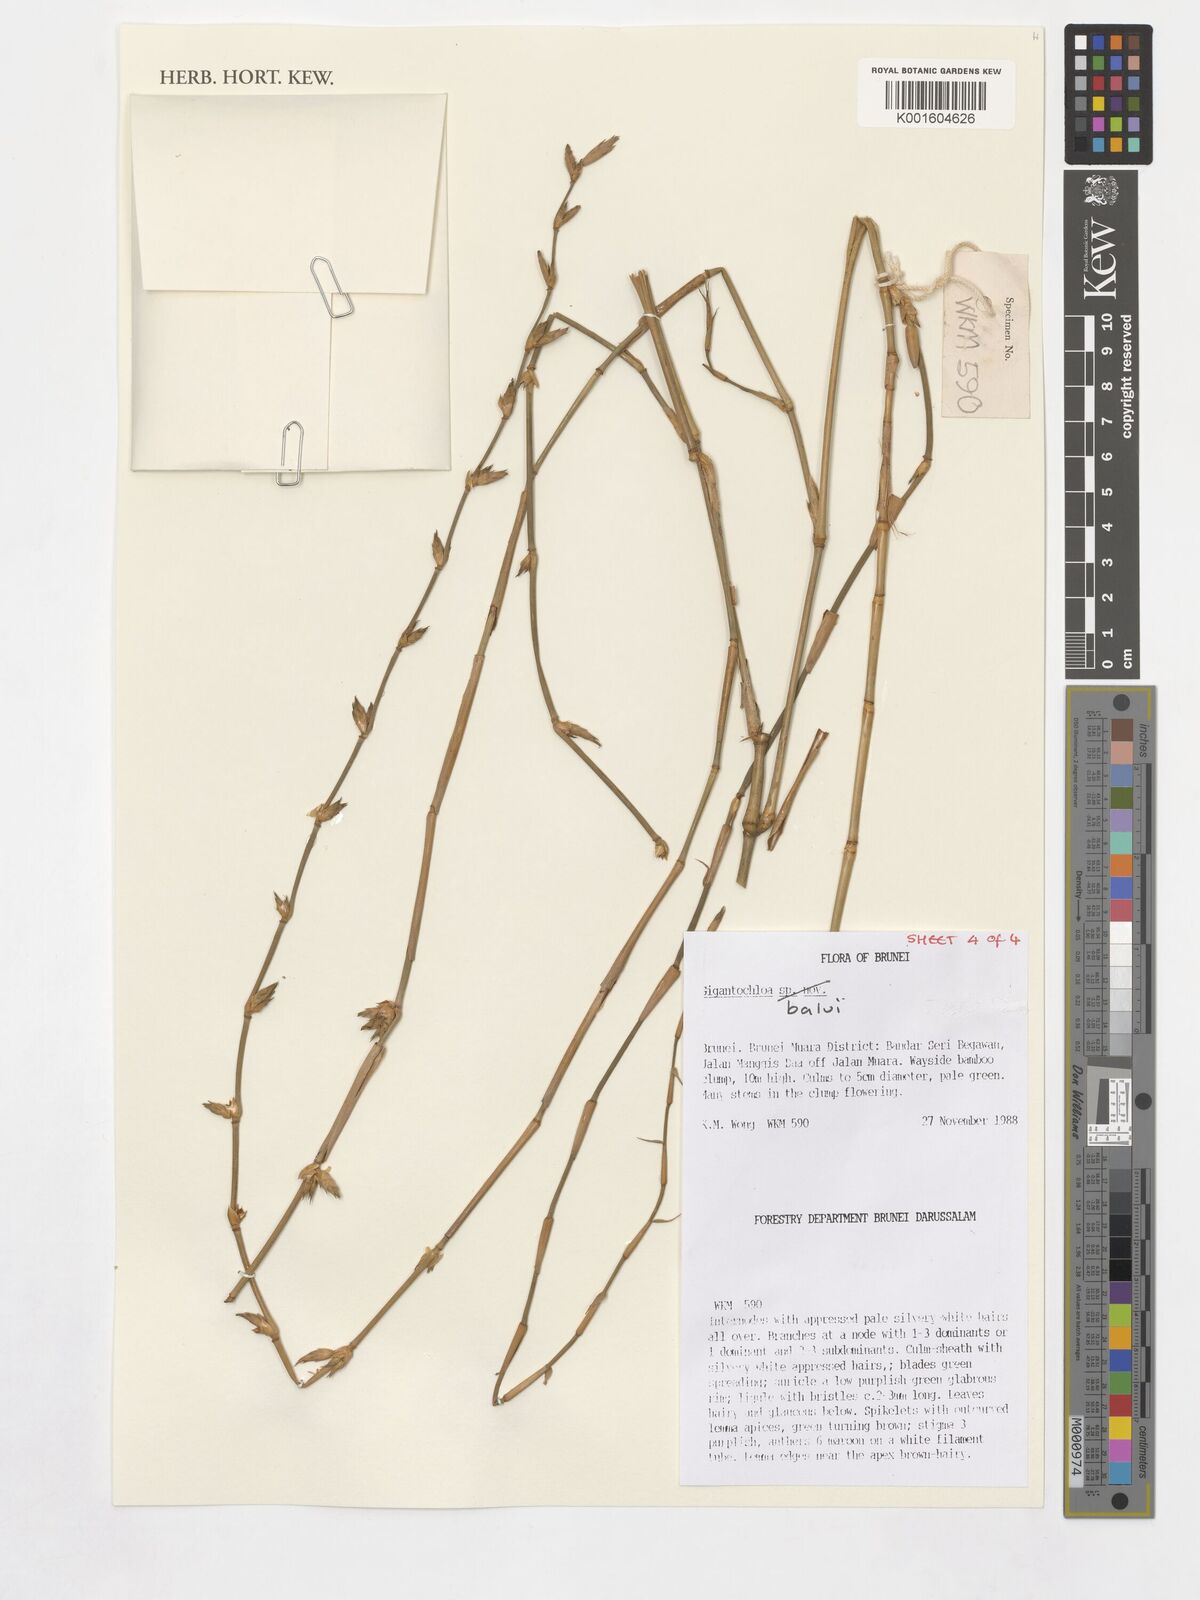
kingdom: Plantae
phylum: Tracheophyta
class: Liliopsida
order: Poales
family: Poaceae
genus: Gigantochloa
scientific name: Gigantochloa balui
